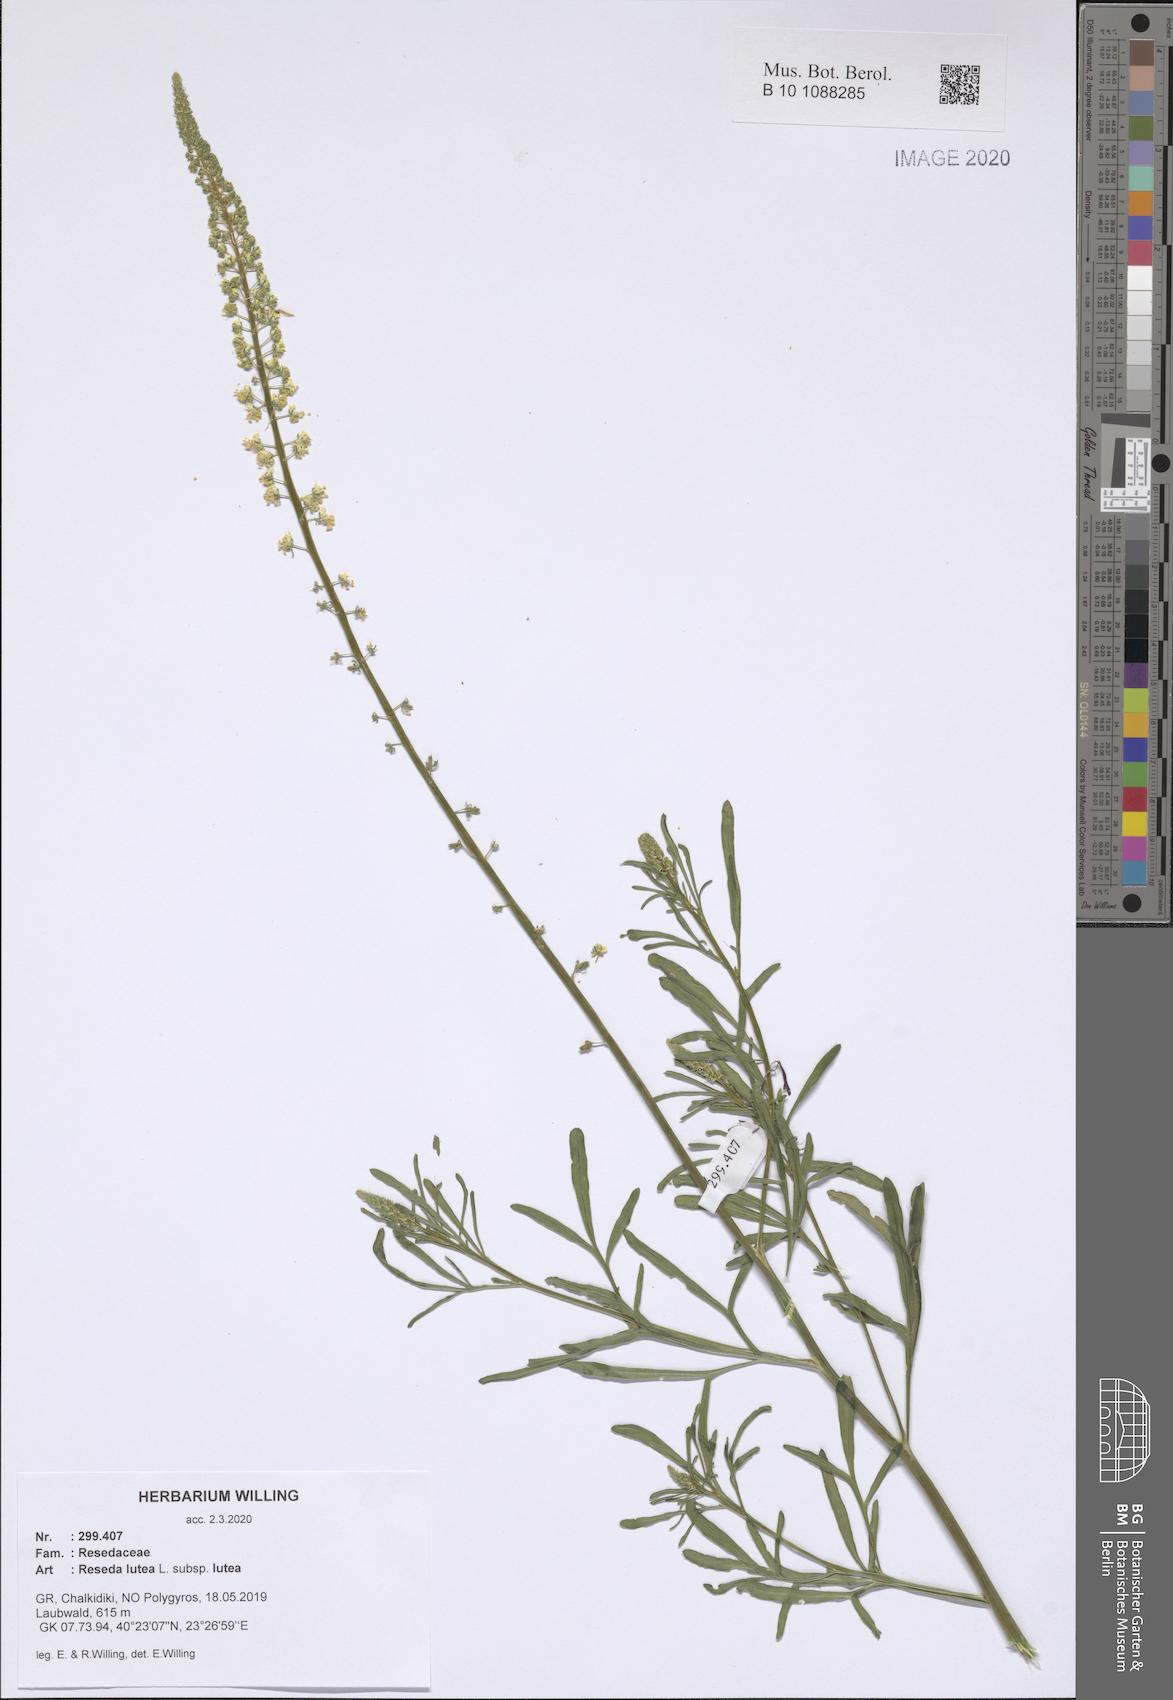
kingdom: Plantae
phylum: Tracheophyta
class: Magnoliopsida
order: Brassicales
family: Resedaceae
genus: Reseda
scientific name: Reseda lutea
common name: Wild mignonette
